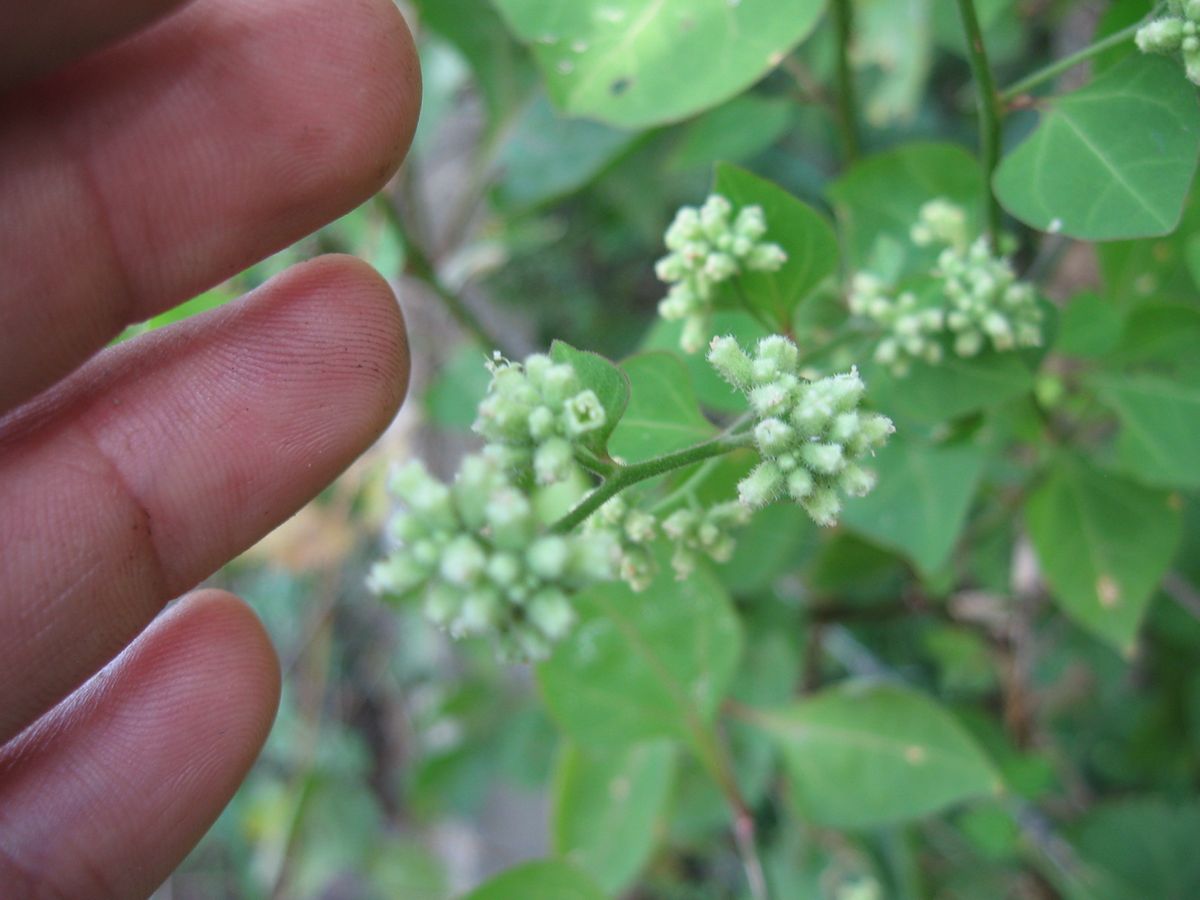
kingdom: Plantae
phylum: Tracheophyta
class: Magnoliopsida
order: Caryophyllales
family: Nyctaginaceae
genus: Boldoa
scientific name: Boldoa purpurascens
